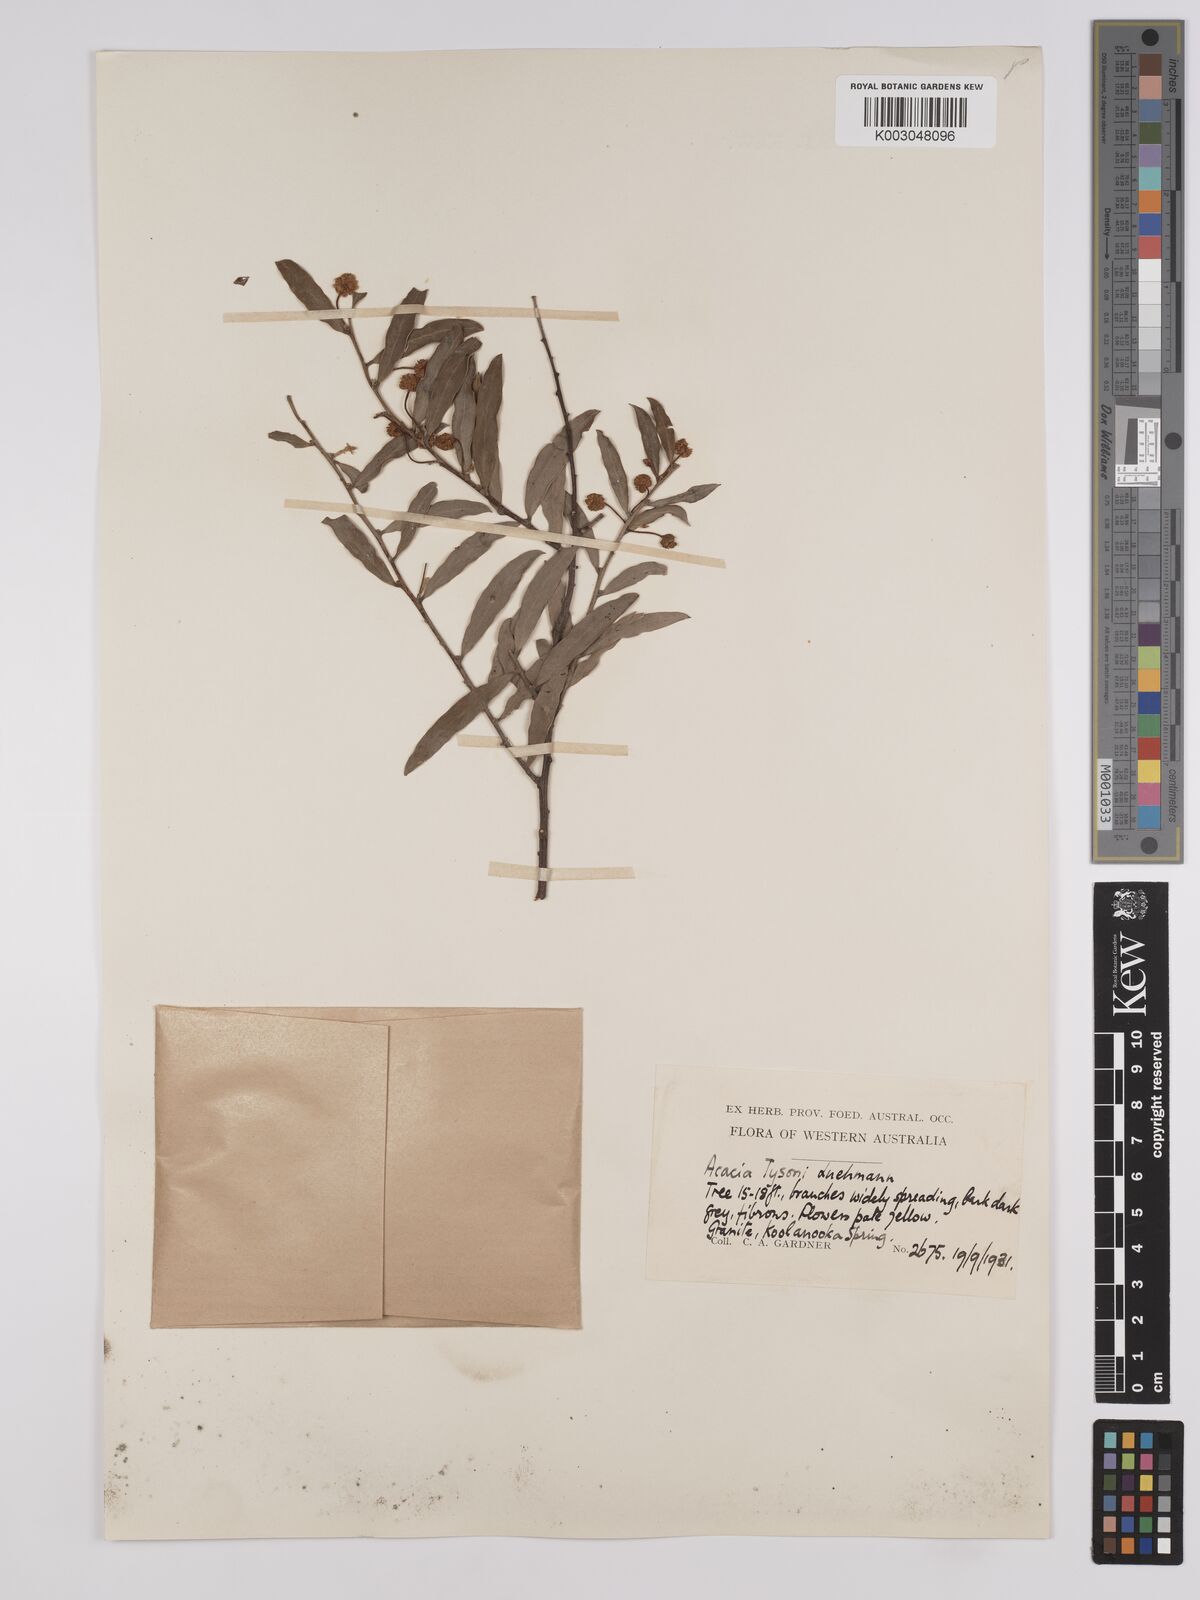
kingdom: Plantae
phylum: Tracheophyta
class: Magnoliopsida
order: Fabales
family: Fabaceae
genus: Acacia
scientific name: Acacia tysonii
